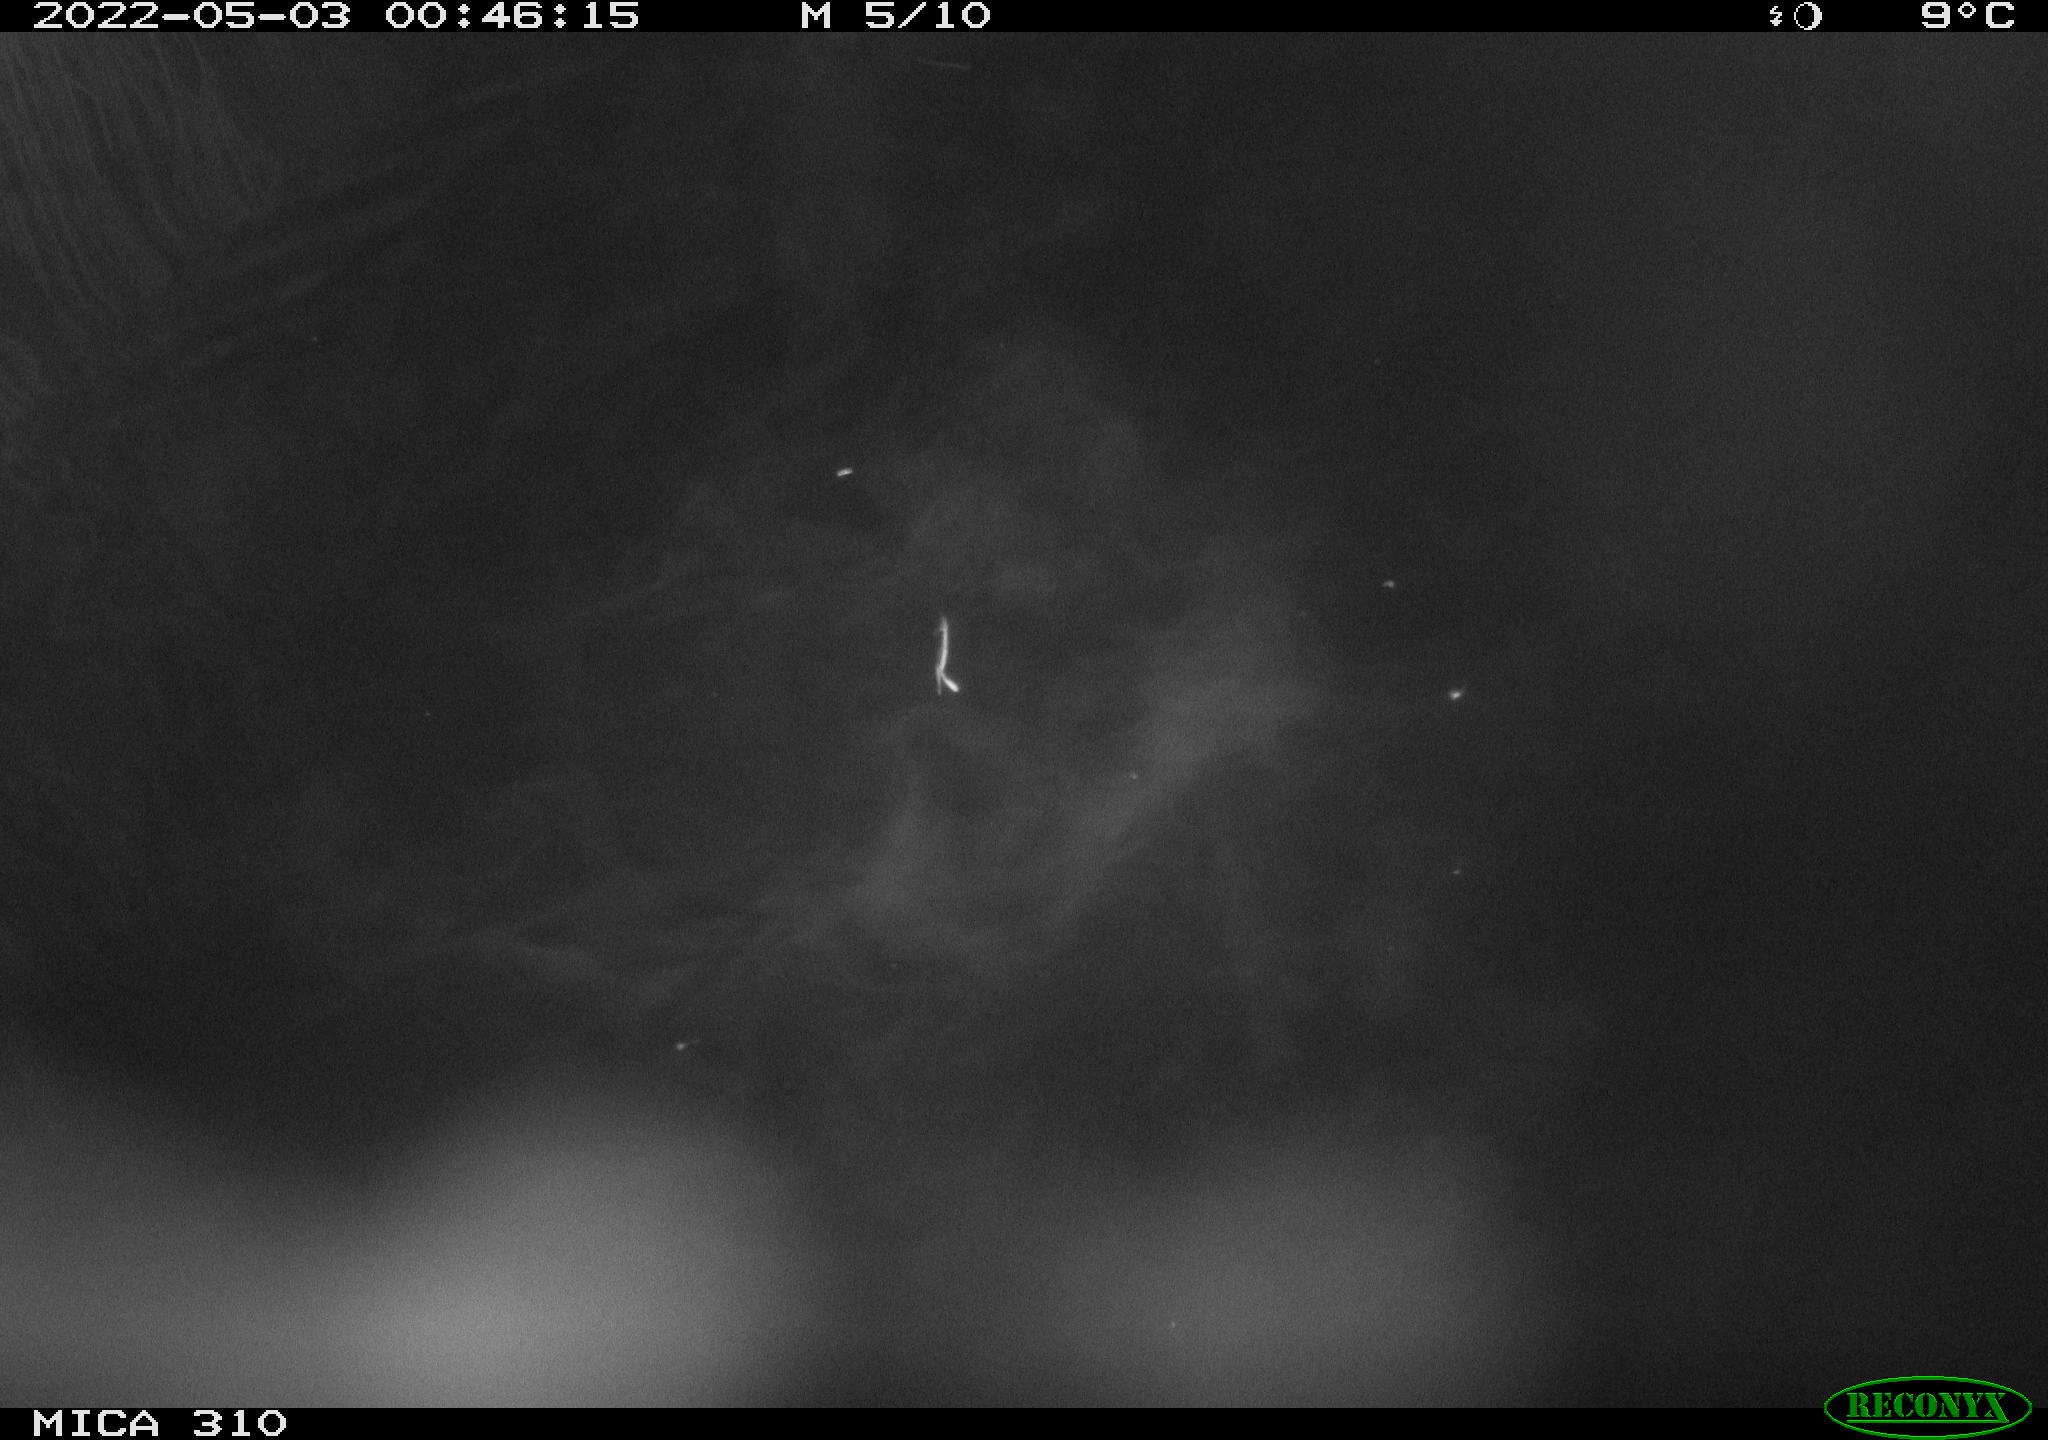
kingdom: Animalia
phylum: Chordata
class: Aves
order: Anseriformes
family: Anatidae
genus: Anas
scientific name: Anas platyrhynchos
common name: Mallard
